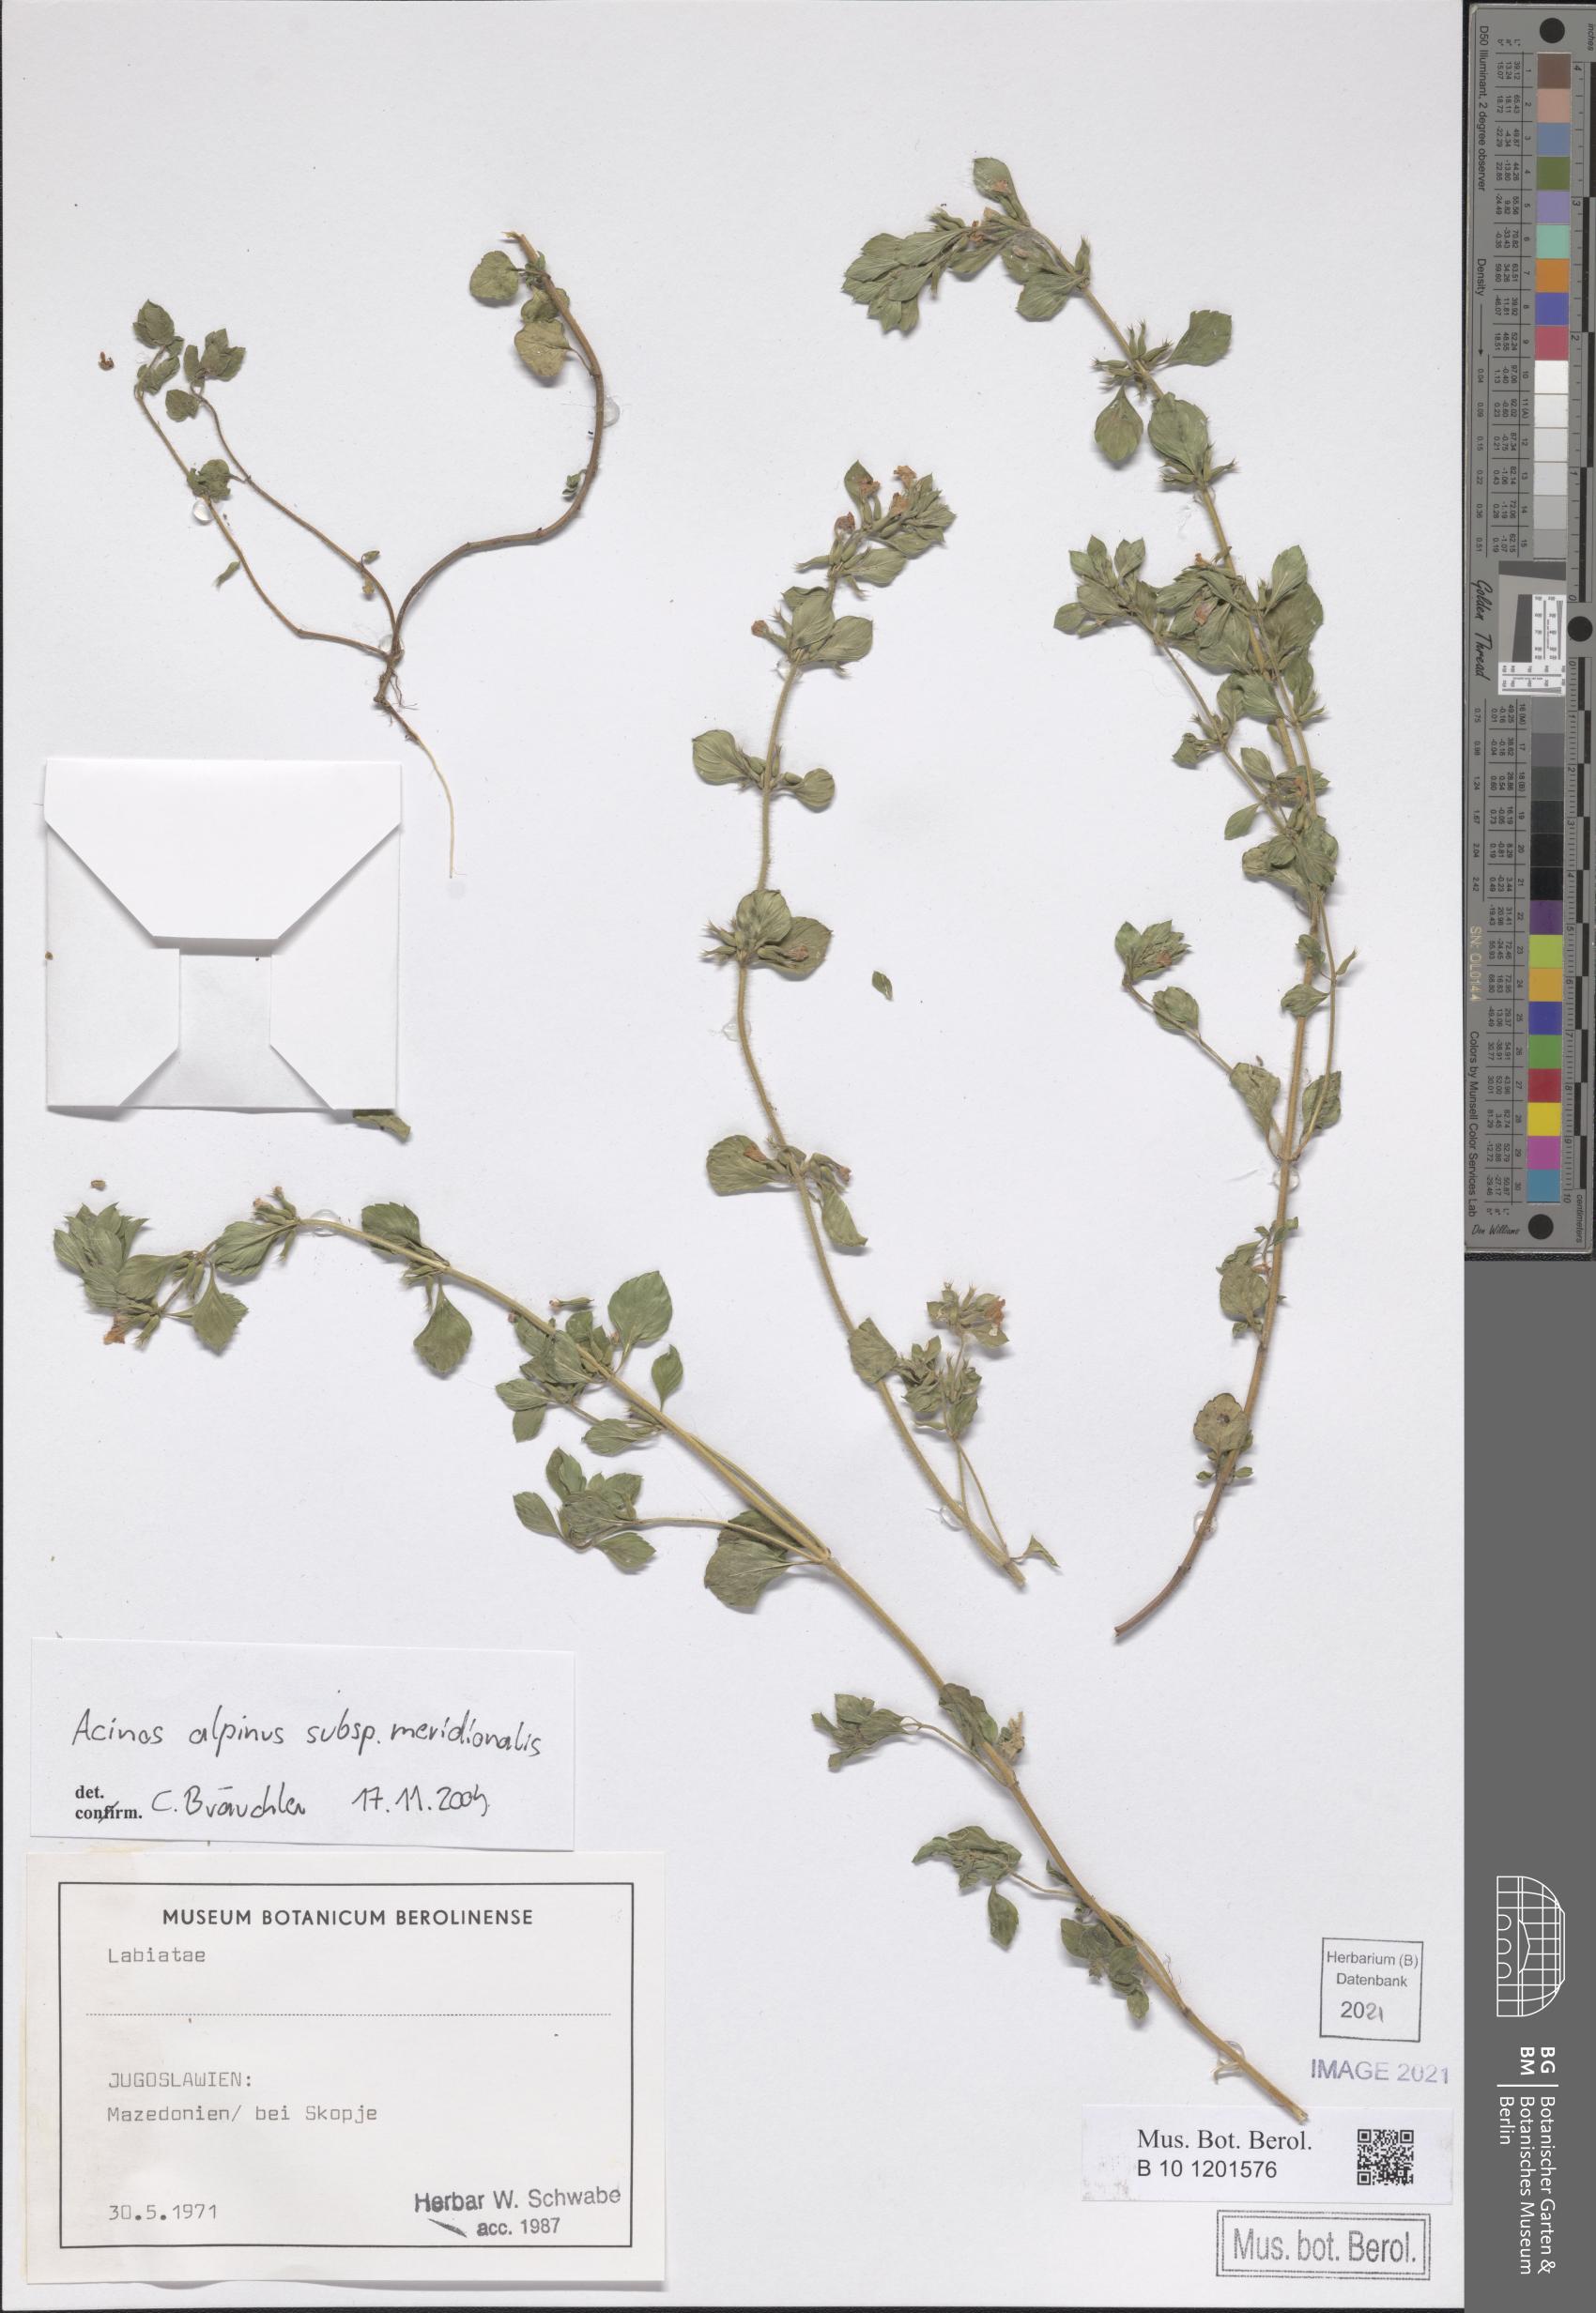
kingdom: Plantae
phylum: Tracheophyta
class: Magnoliopsida
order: Lamiales
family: Lamiaceae
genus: Clinopodium
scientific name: Clinopodium alpinum
